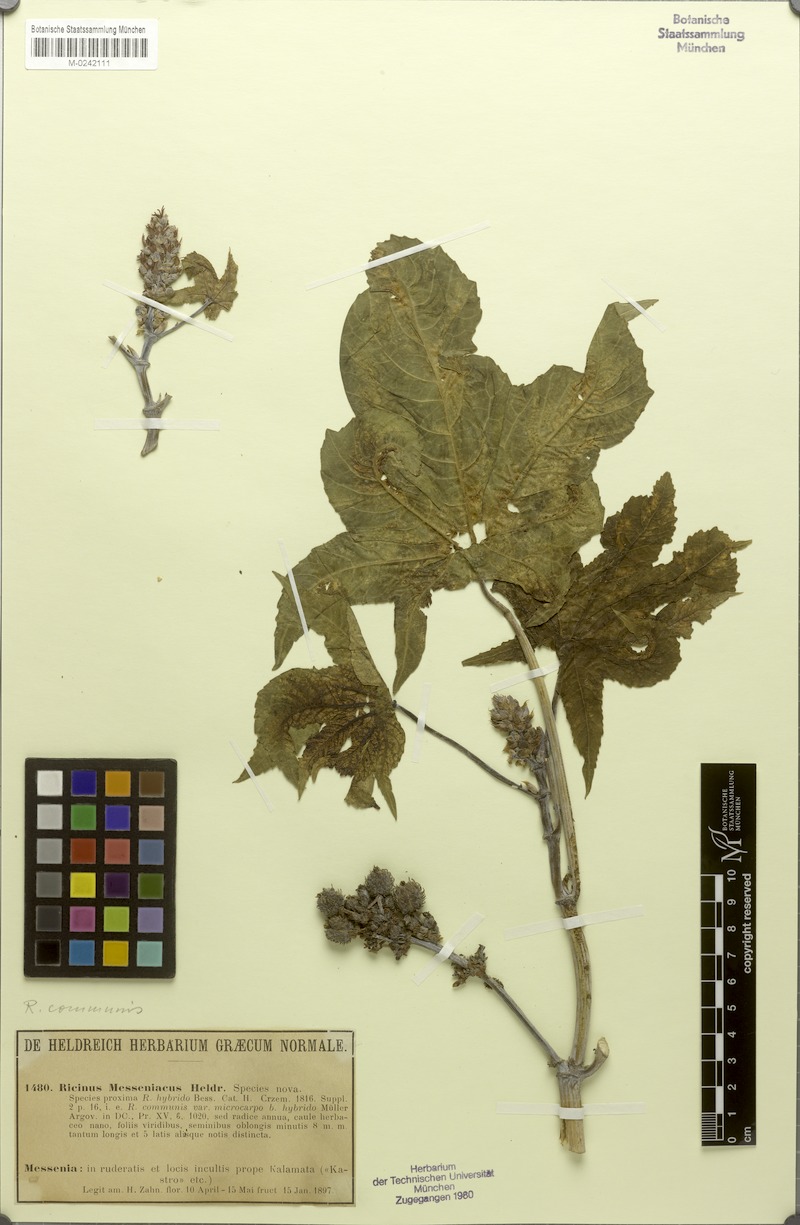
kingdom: Plantae
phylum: Tracheophyta
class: Magnoliopsida
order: Malpighiales
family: Euphorbiaceae
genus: Ricinus
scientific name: Ricinus communis
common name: Castor-oil-plant
